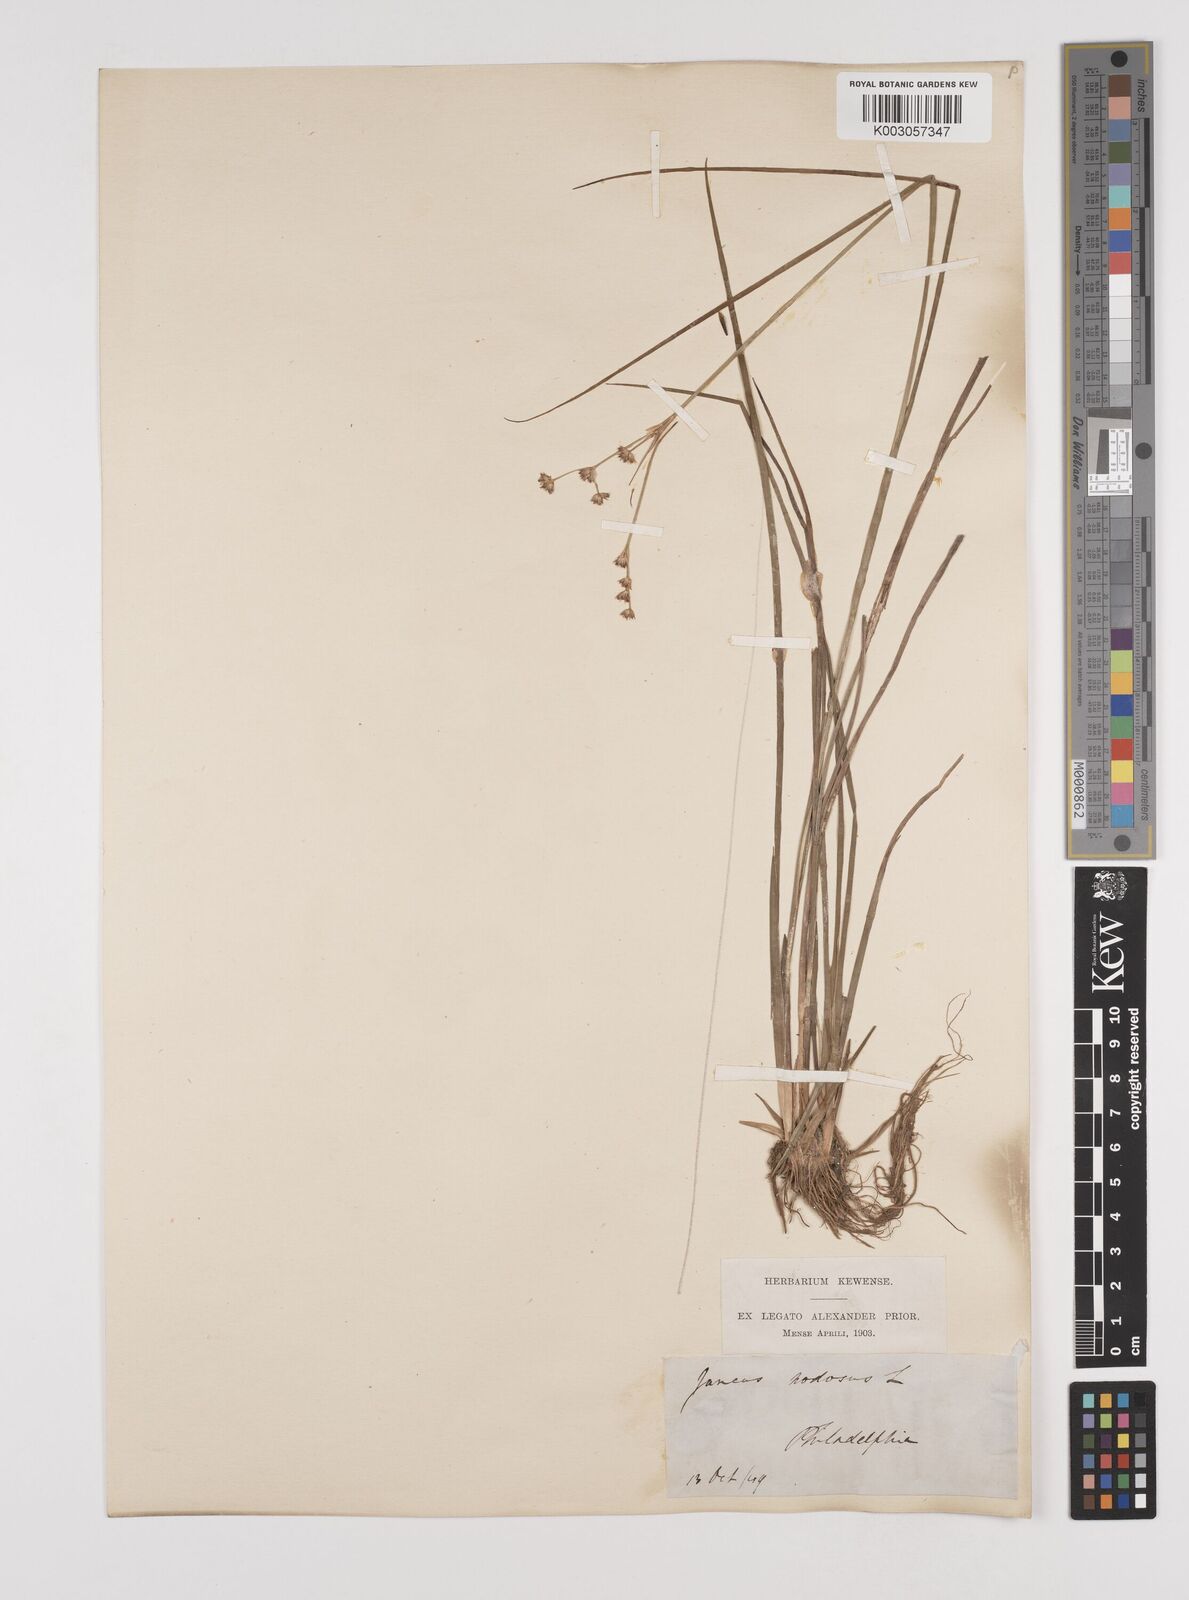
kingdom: Plantae
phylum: Tracheophyta
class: Liliopsida
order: Poales
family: Juncaceae
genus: Juncus
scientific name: Juncus nodosus
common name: Knotted rush
